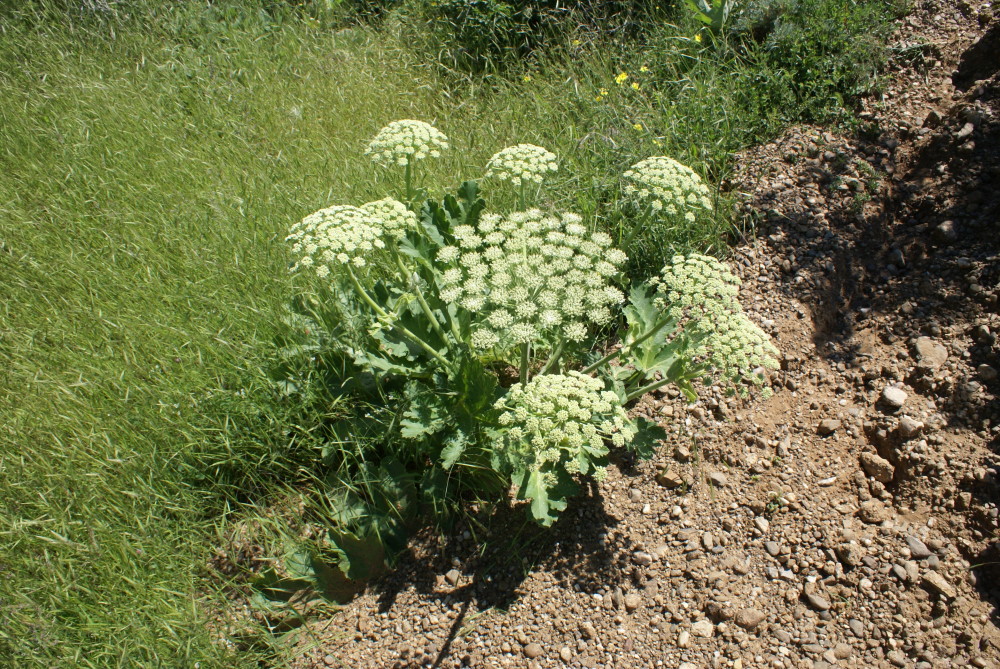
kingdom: Plantae
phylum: Tracheophyta
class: Magnoliopsida
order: Apiales
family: Apiaceae
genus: Heracleum
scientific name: Heracleum villosum
